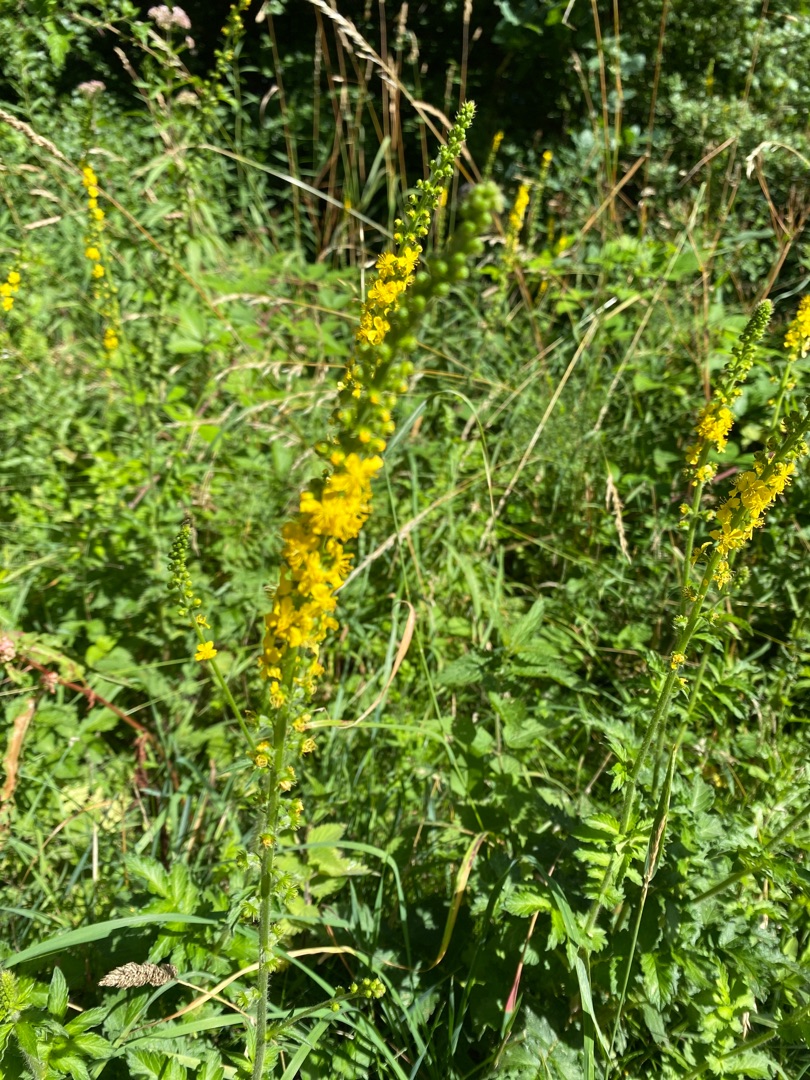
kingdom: Plantae
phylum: Tracheophyta
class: Magnoliopsida
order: Rosales
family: Rosaceae
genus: Agrimonia
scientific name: Agrimonia eupatoria
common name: Almindelig agermåne
